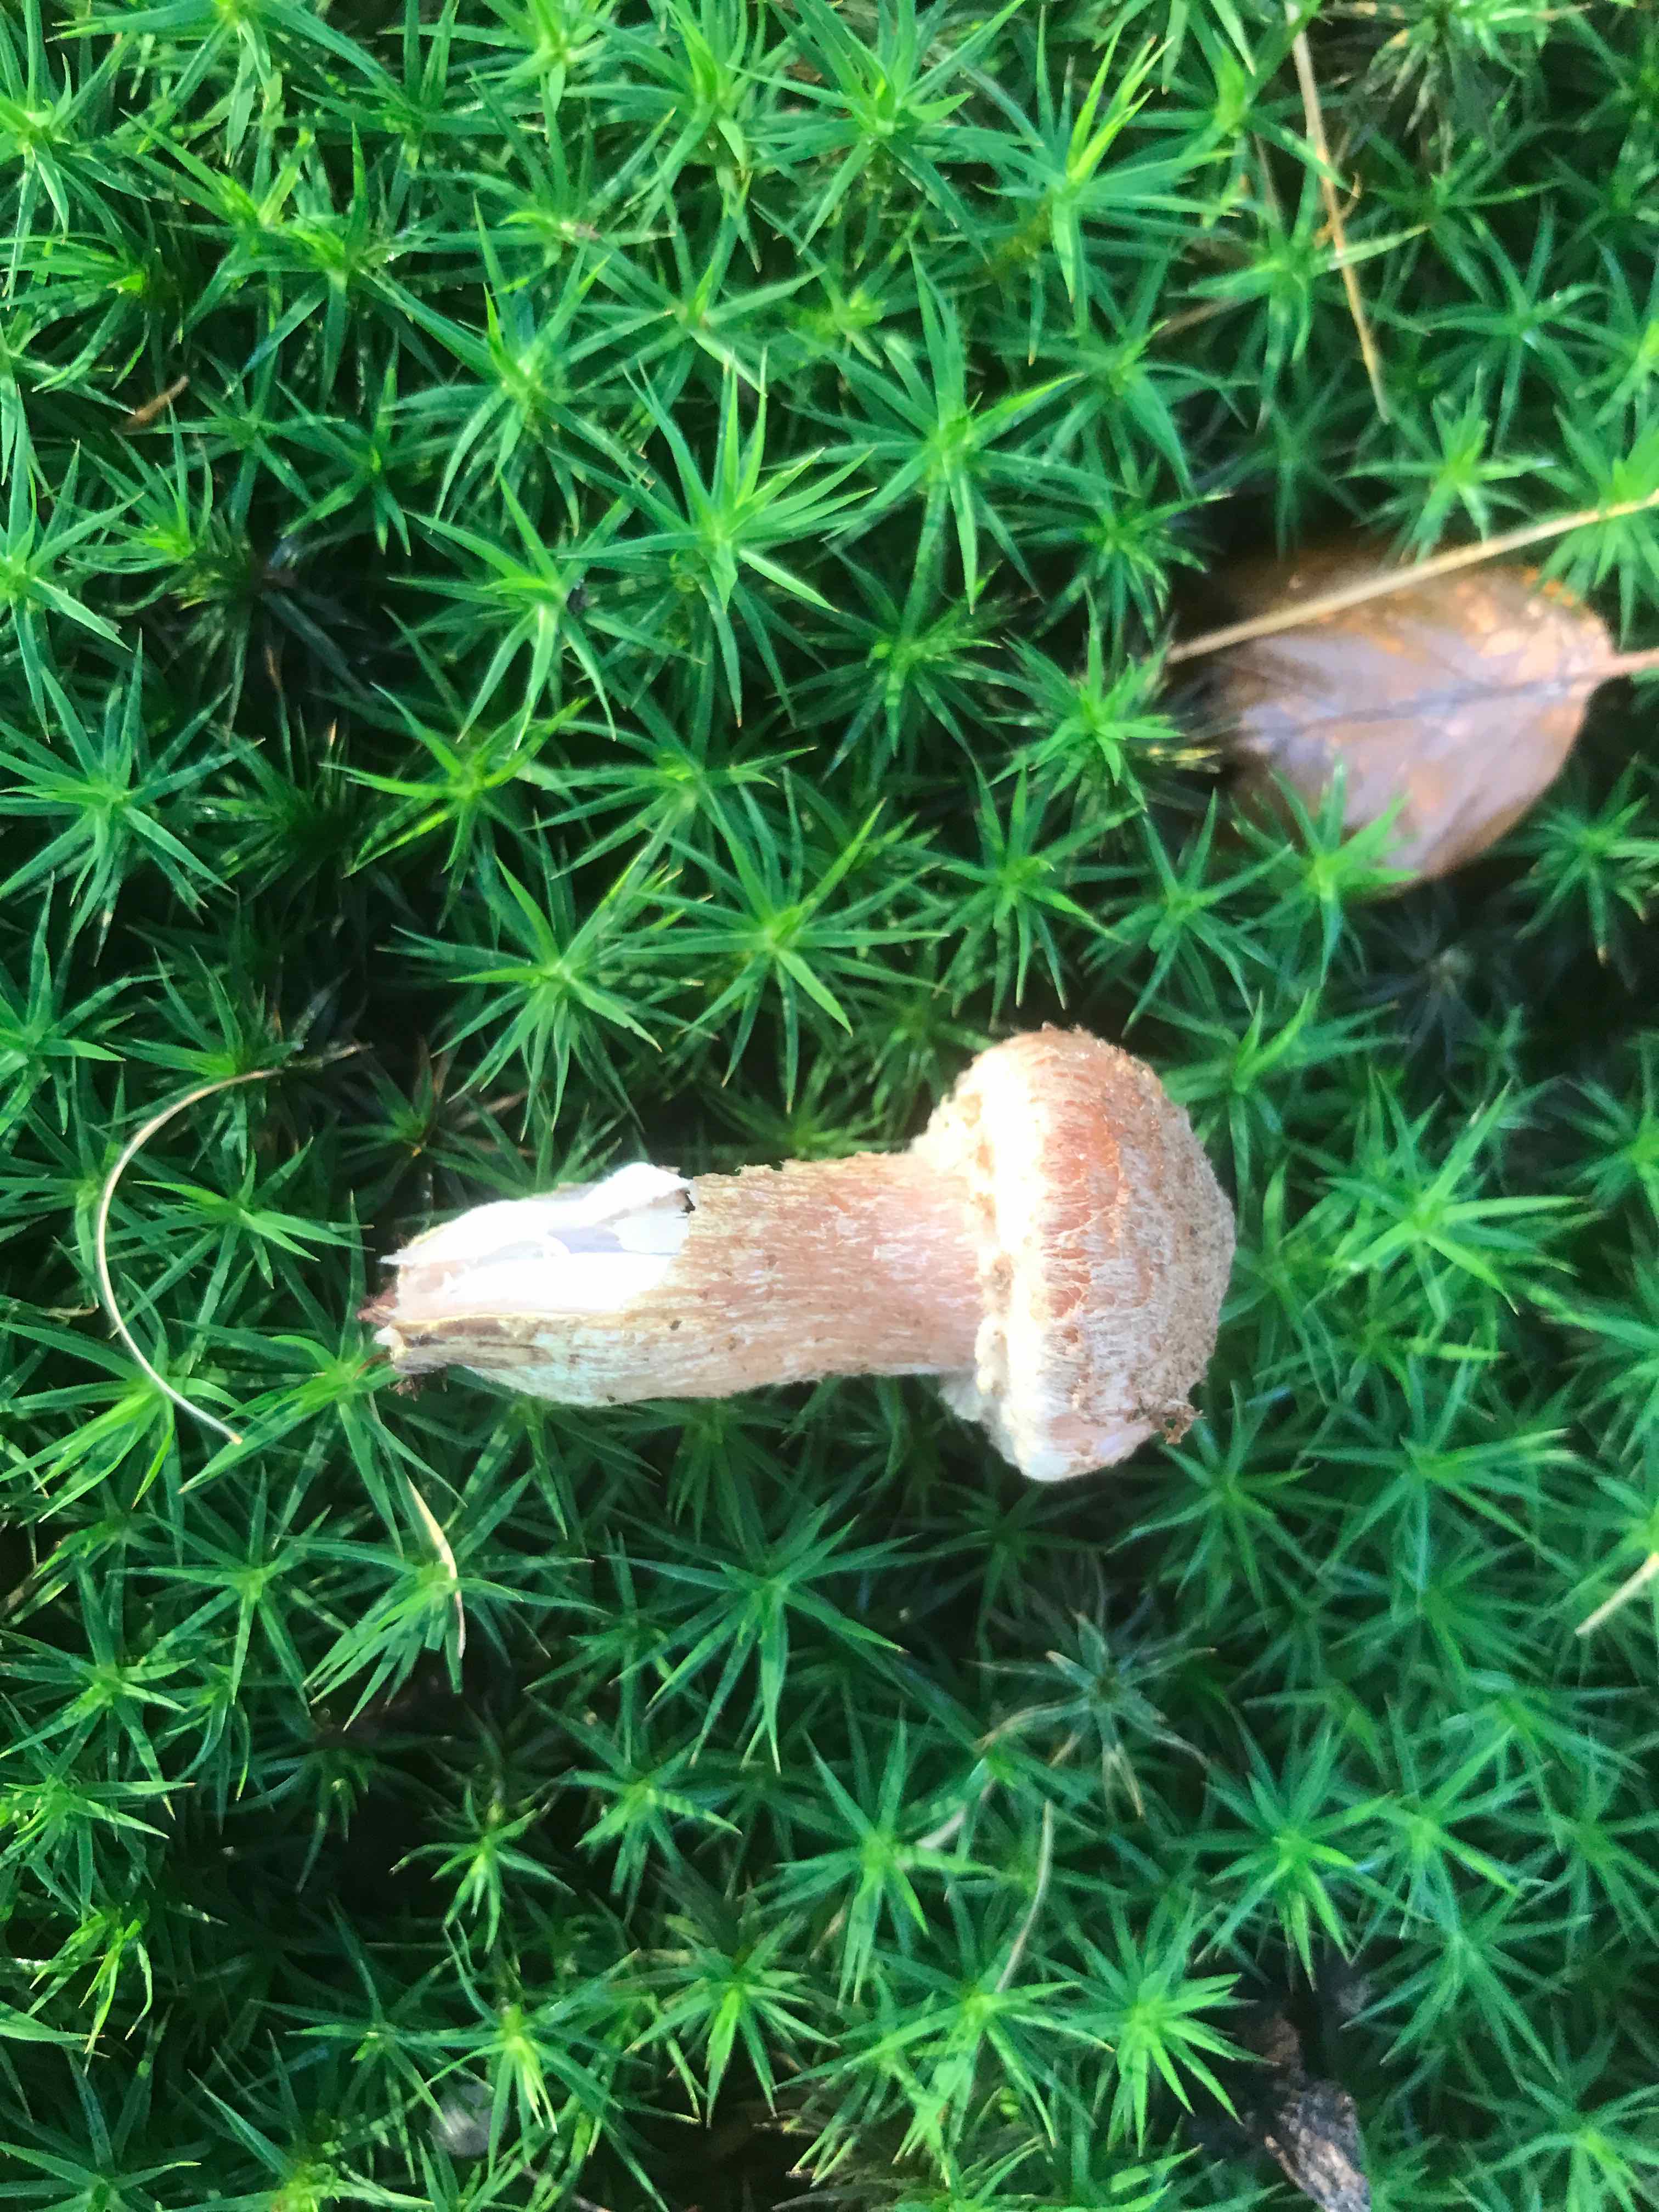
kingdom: Fungi
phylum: Basidiomycota
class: Agaricomycetes
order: Agaricales
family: Physalacriaceae
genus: Armillaria
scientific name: Armillaria lutea
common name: køllestokket honningsvamp
